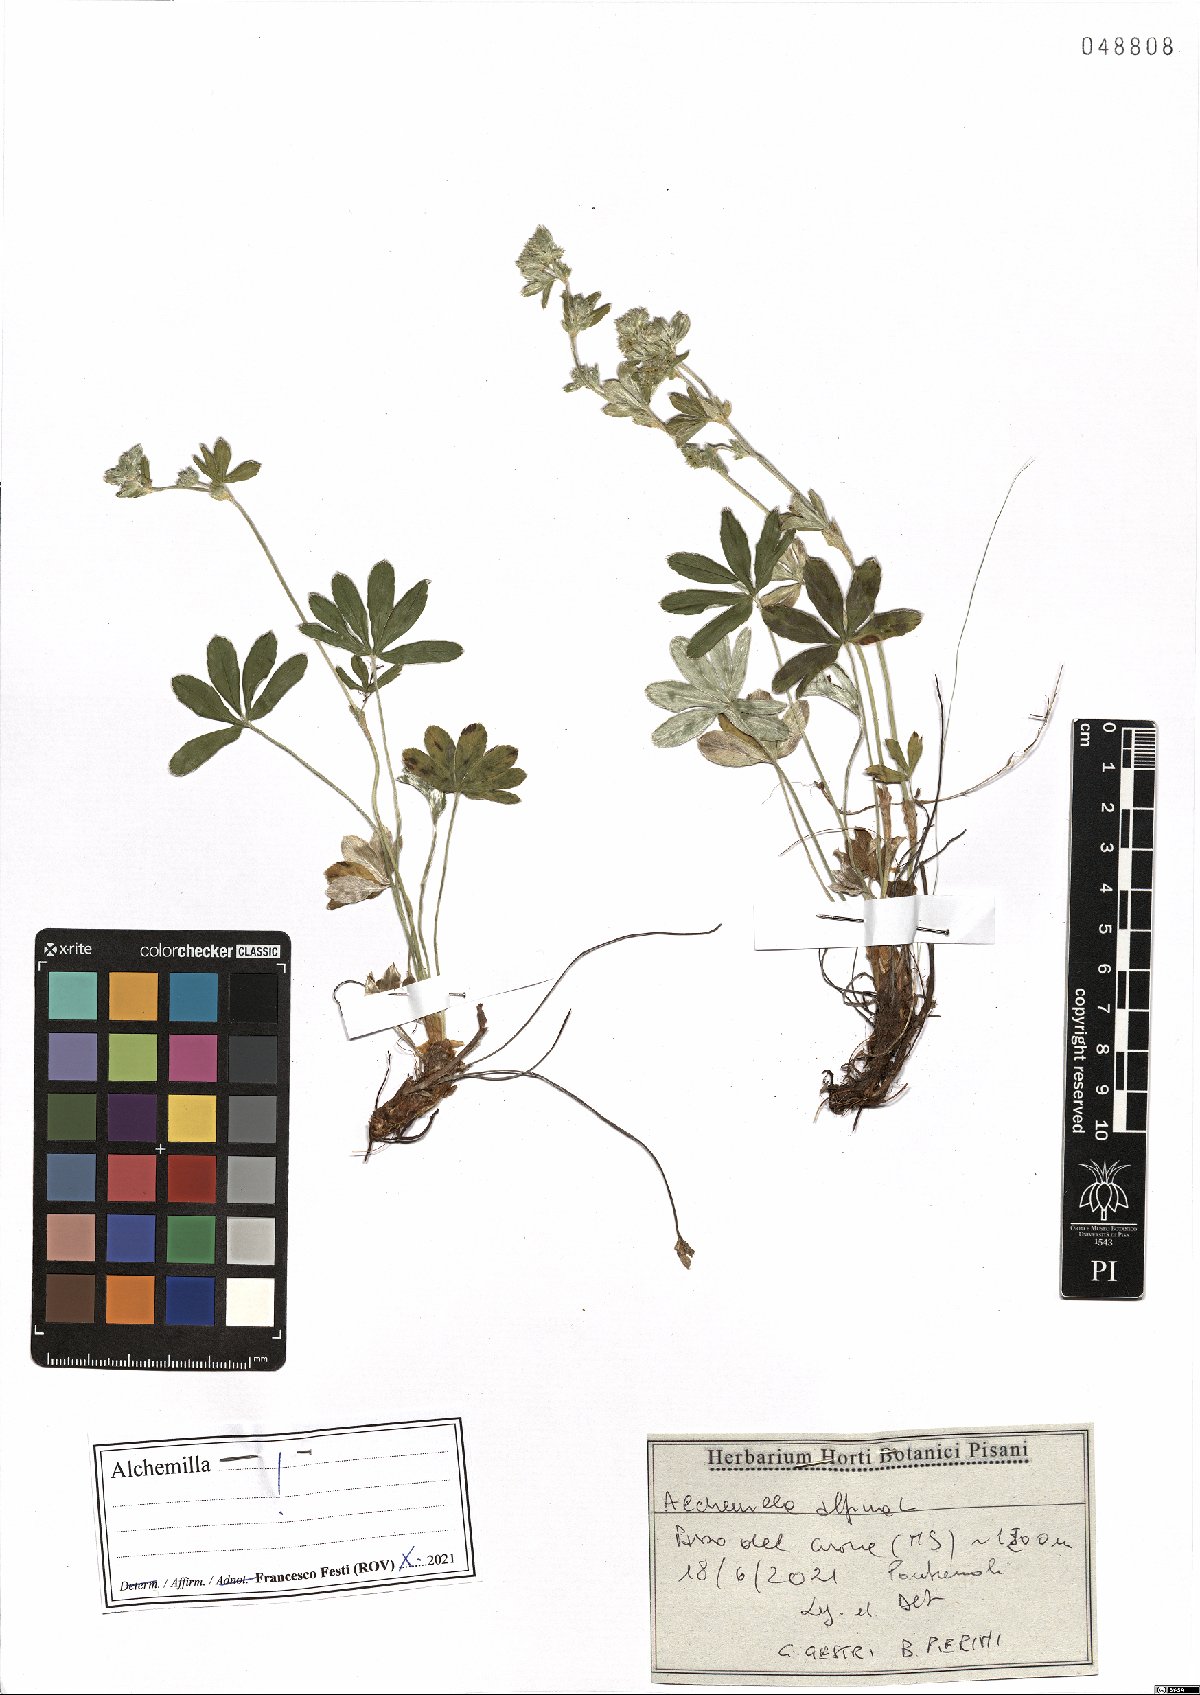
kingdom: Plantae
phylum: Tracheophyta
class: Magnoliopsida
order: Rosales
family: Rosaceae
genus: Alchemilla
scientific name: Alchemilla alpina
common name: Alpine lady's-mantle
